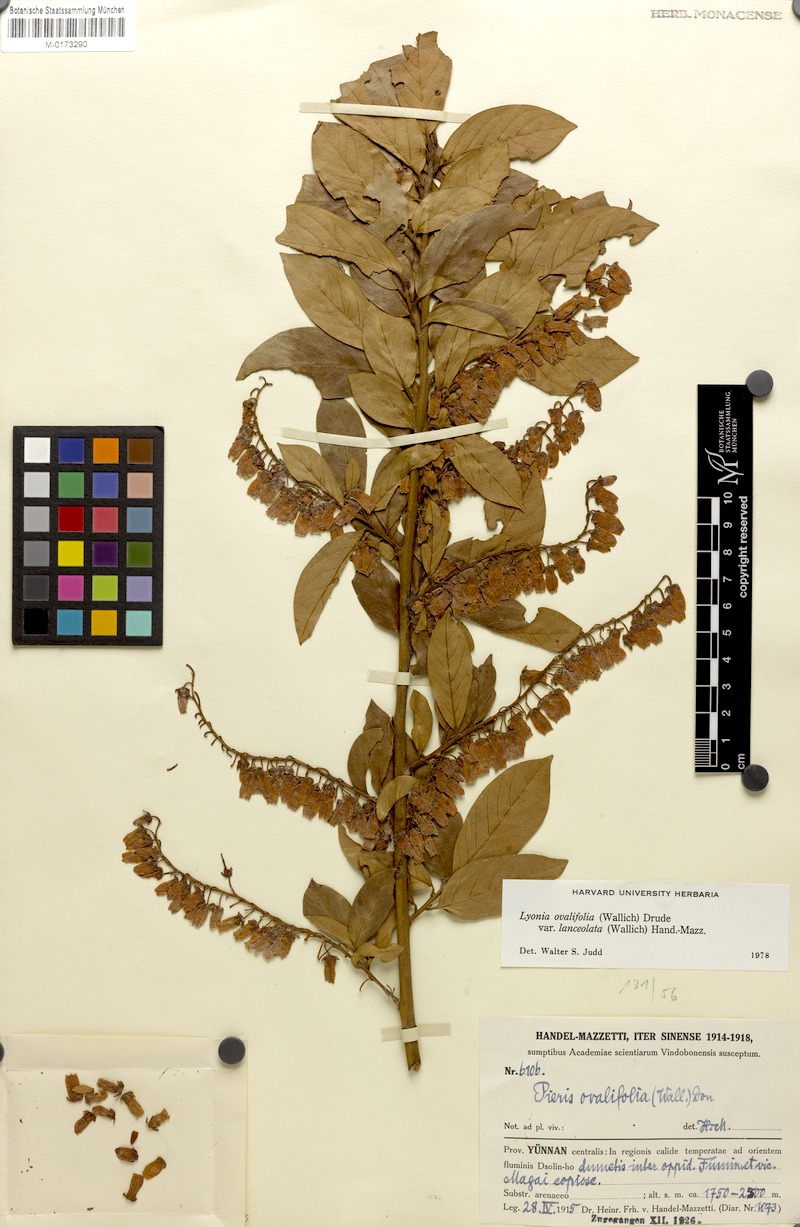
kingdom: Plantae
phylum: Tracheophyta
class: Magnoliopsida
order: Ericales
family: Ericaceae
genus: Lyonia
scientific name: Lyonia ovalifolia
